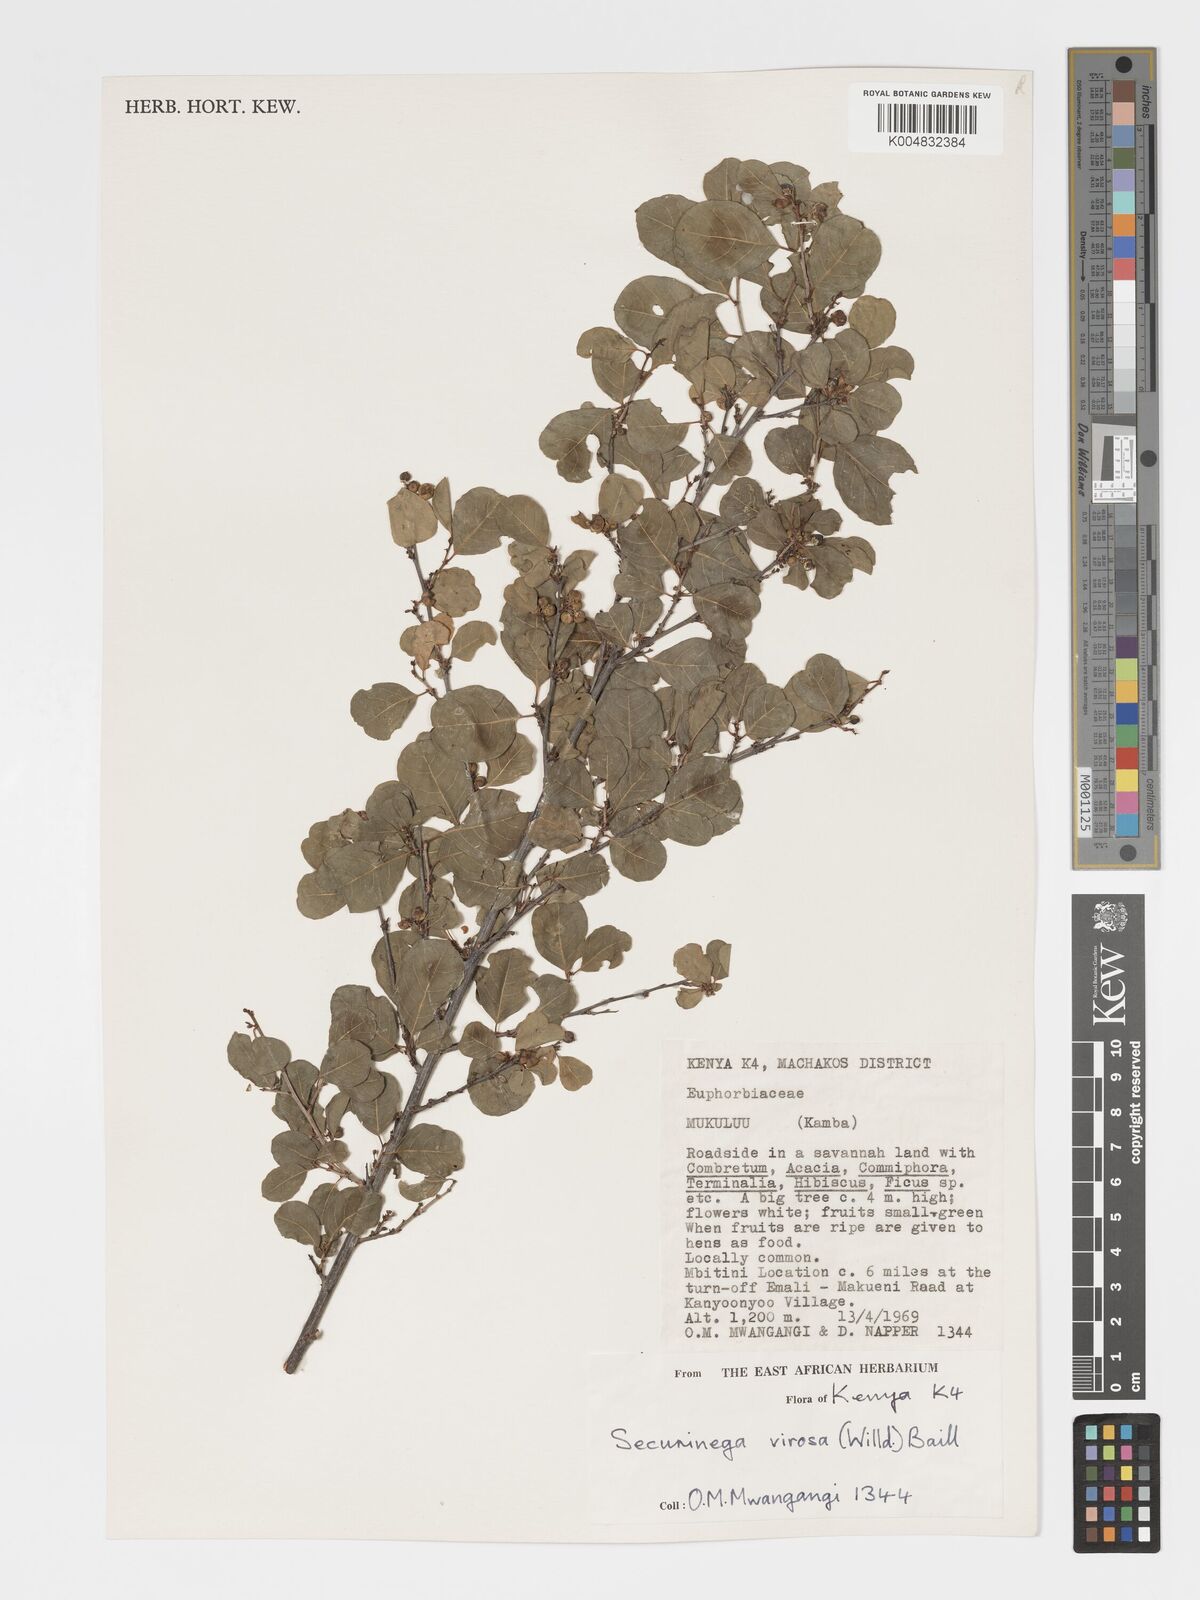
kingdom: Plantae
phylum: Tracheophyta
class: Magnoliopsida
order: Malpighiales
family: Phyllanthaceae
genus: Flueggea
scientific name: Flueggea
